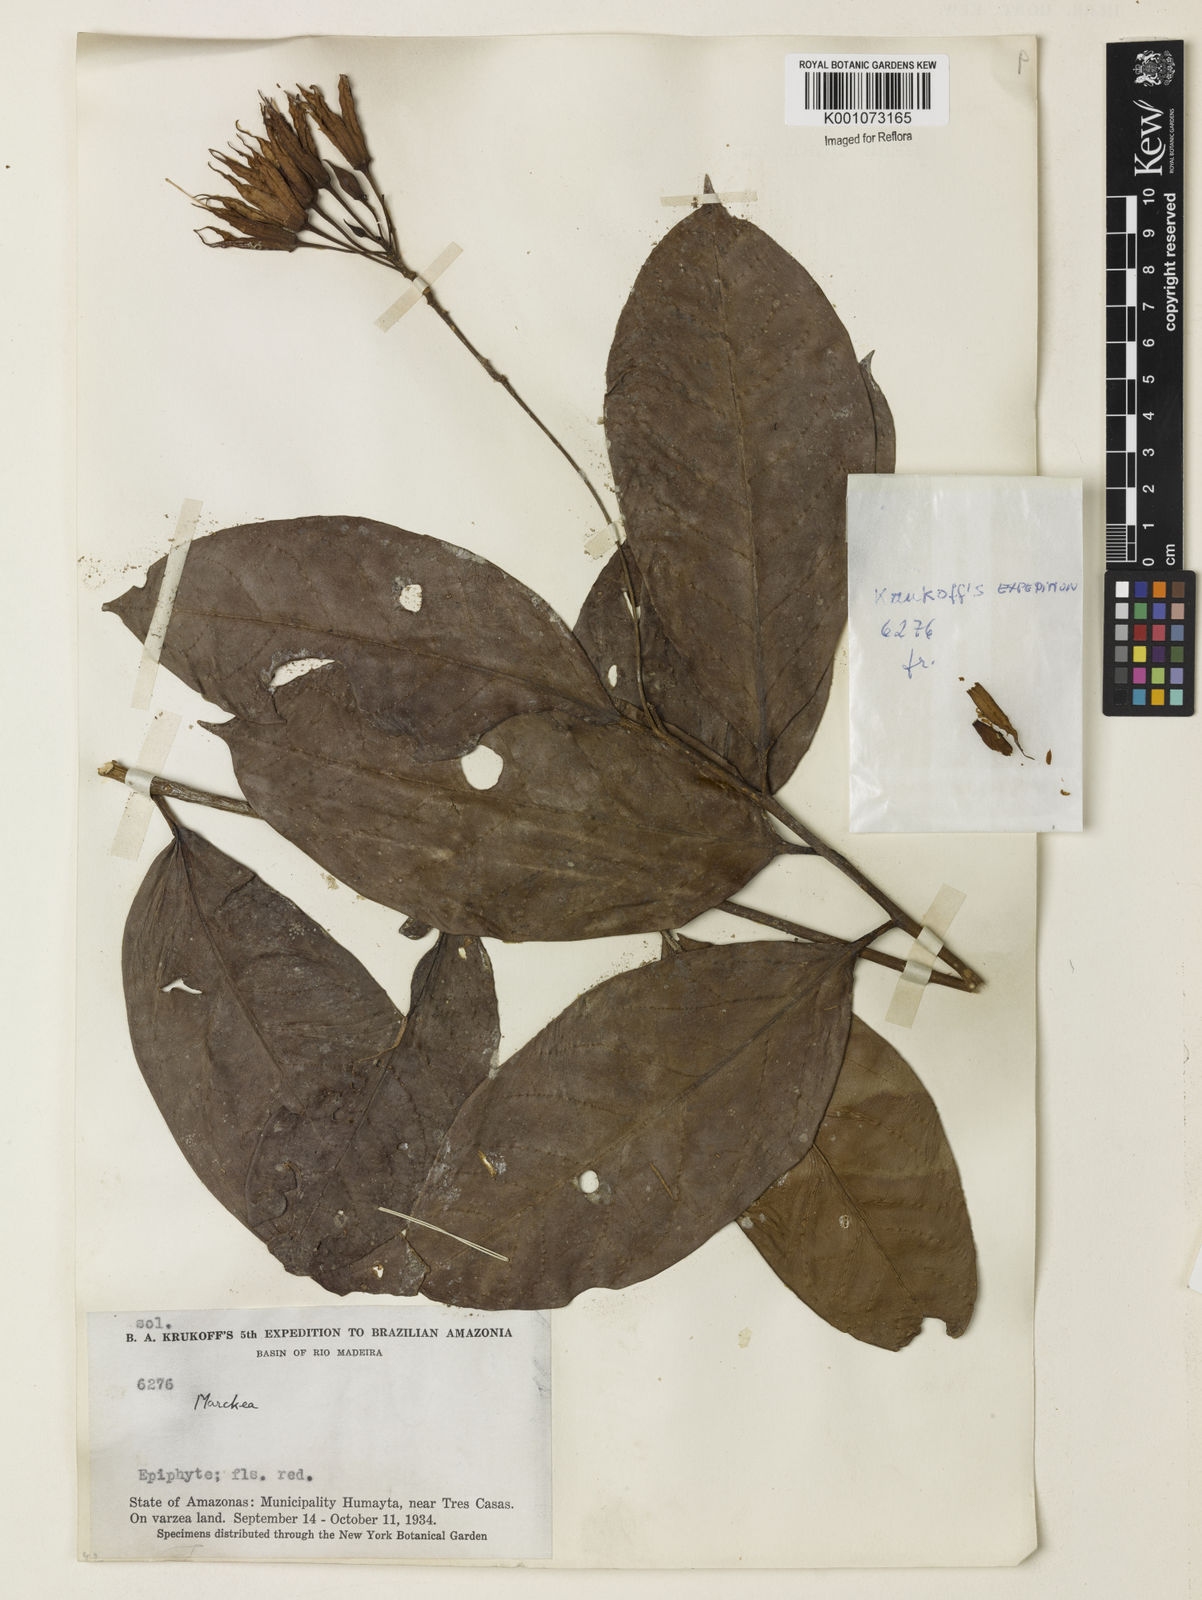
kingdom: Plantae
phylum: Tracheophyta
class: Magnoliopsida
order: Solanales
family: Solanaceae
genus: Markea
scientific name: Markea coccinea
